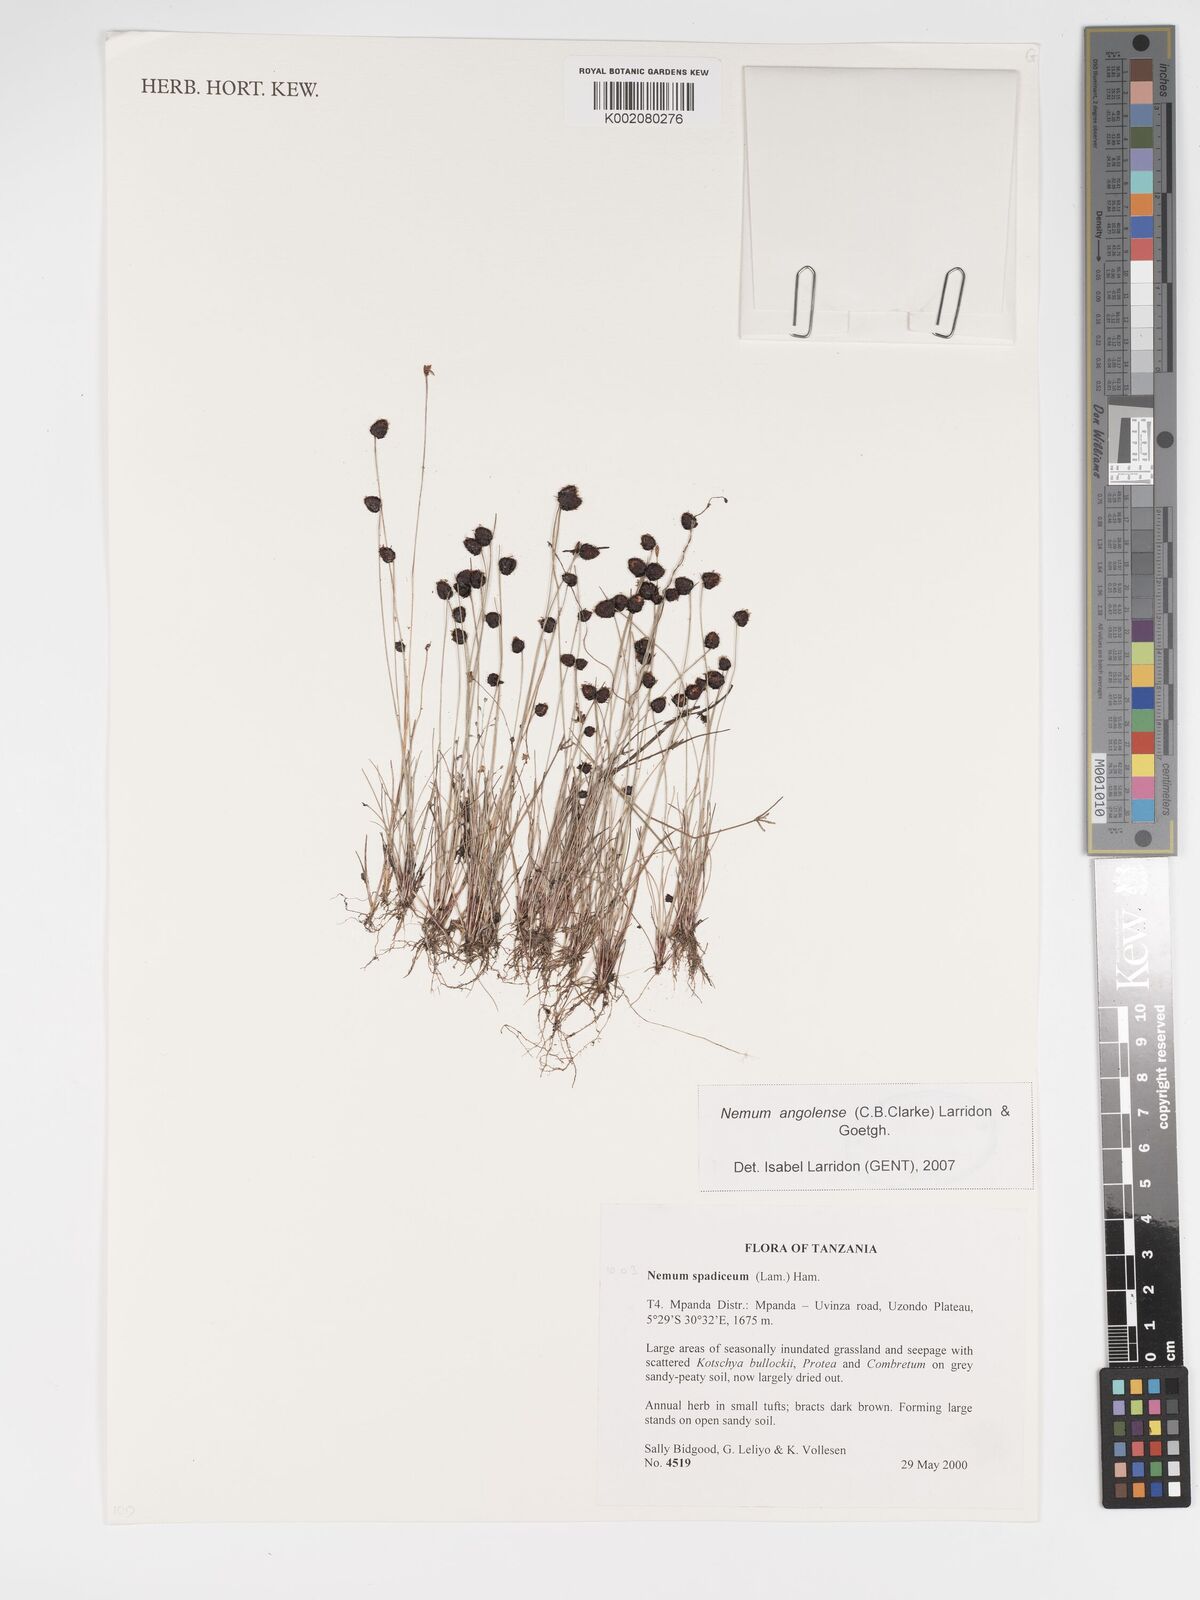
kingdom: Plantae
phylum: Tracheophyta
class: Liliopsida
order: Poales
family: Cyperaceae
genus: Bulbostylis
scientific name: Bulbostylis angolensis
